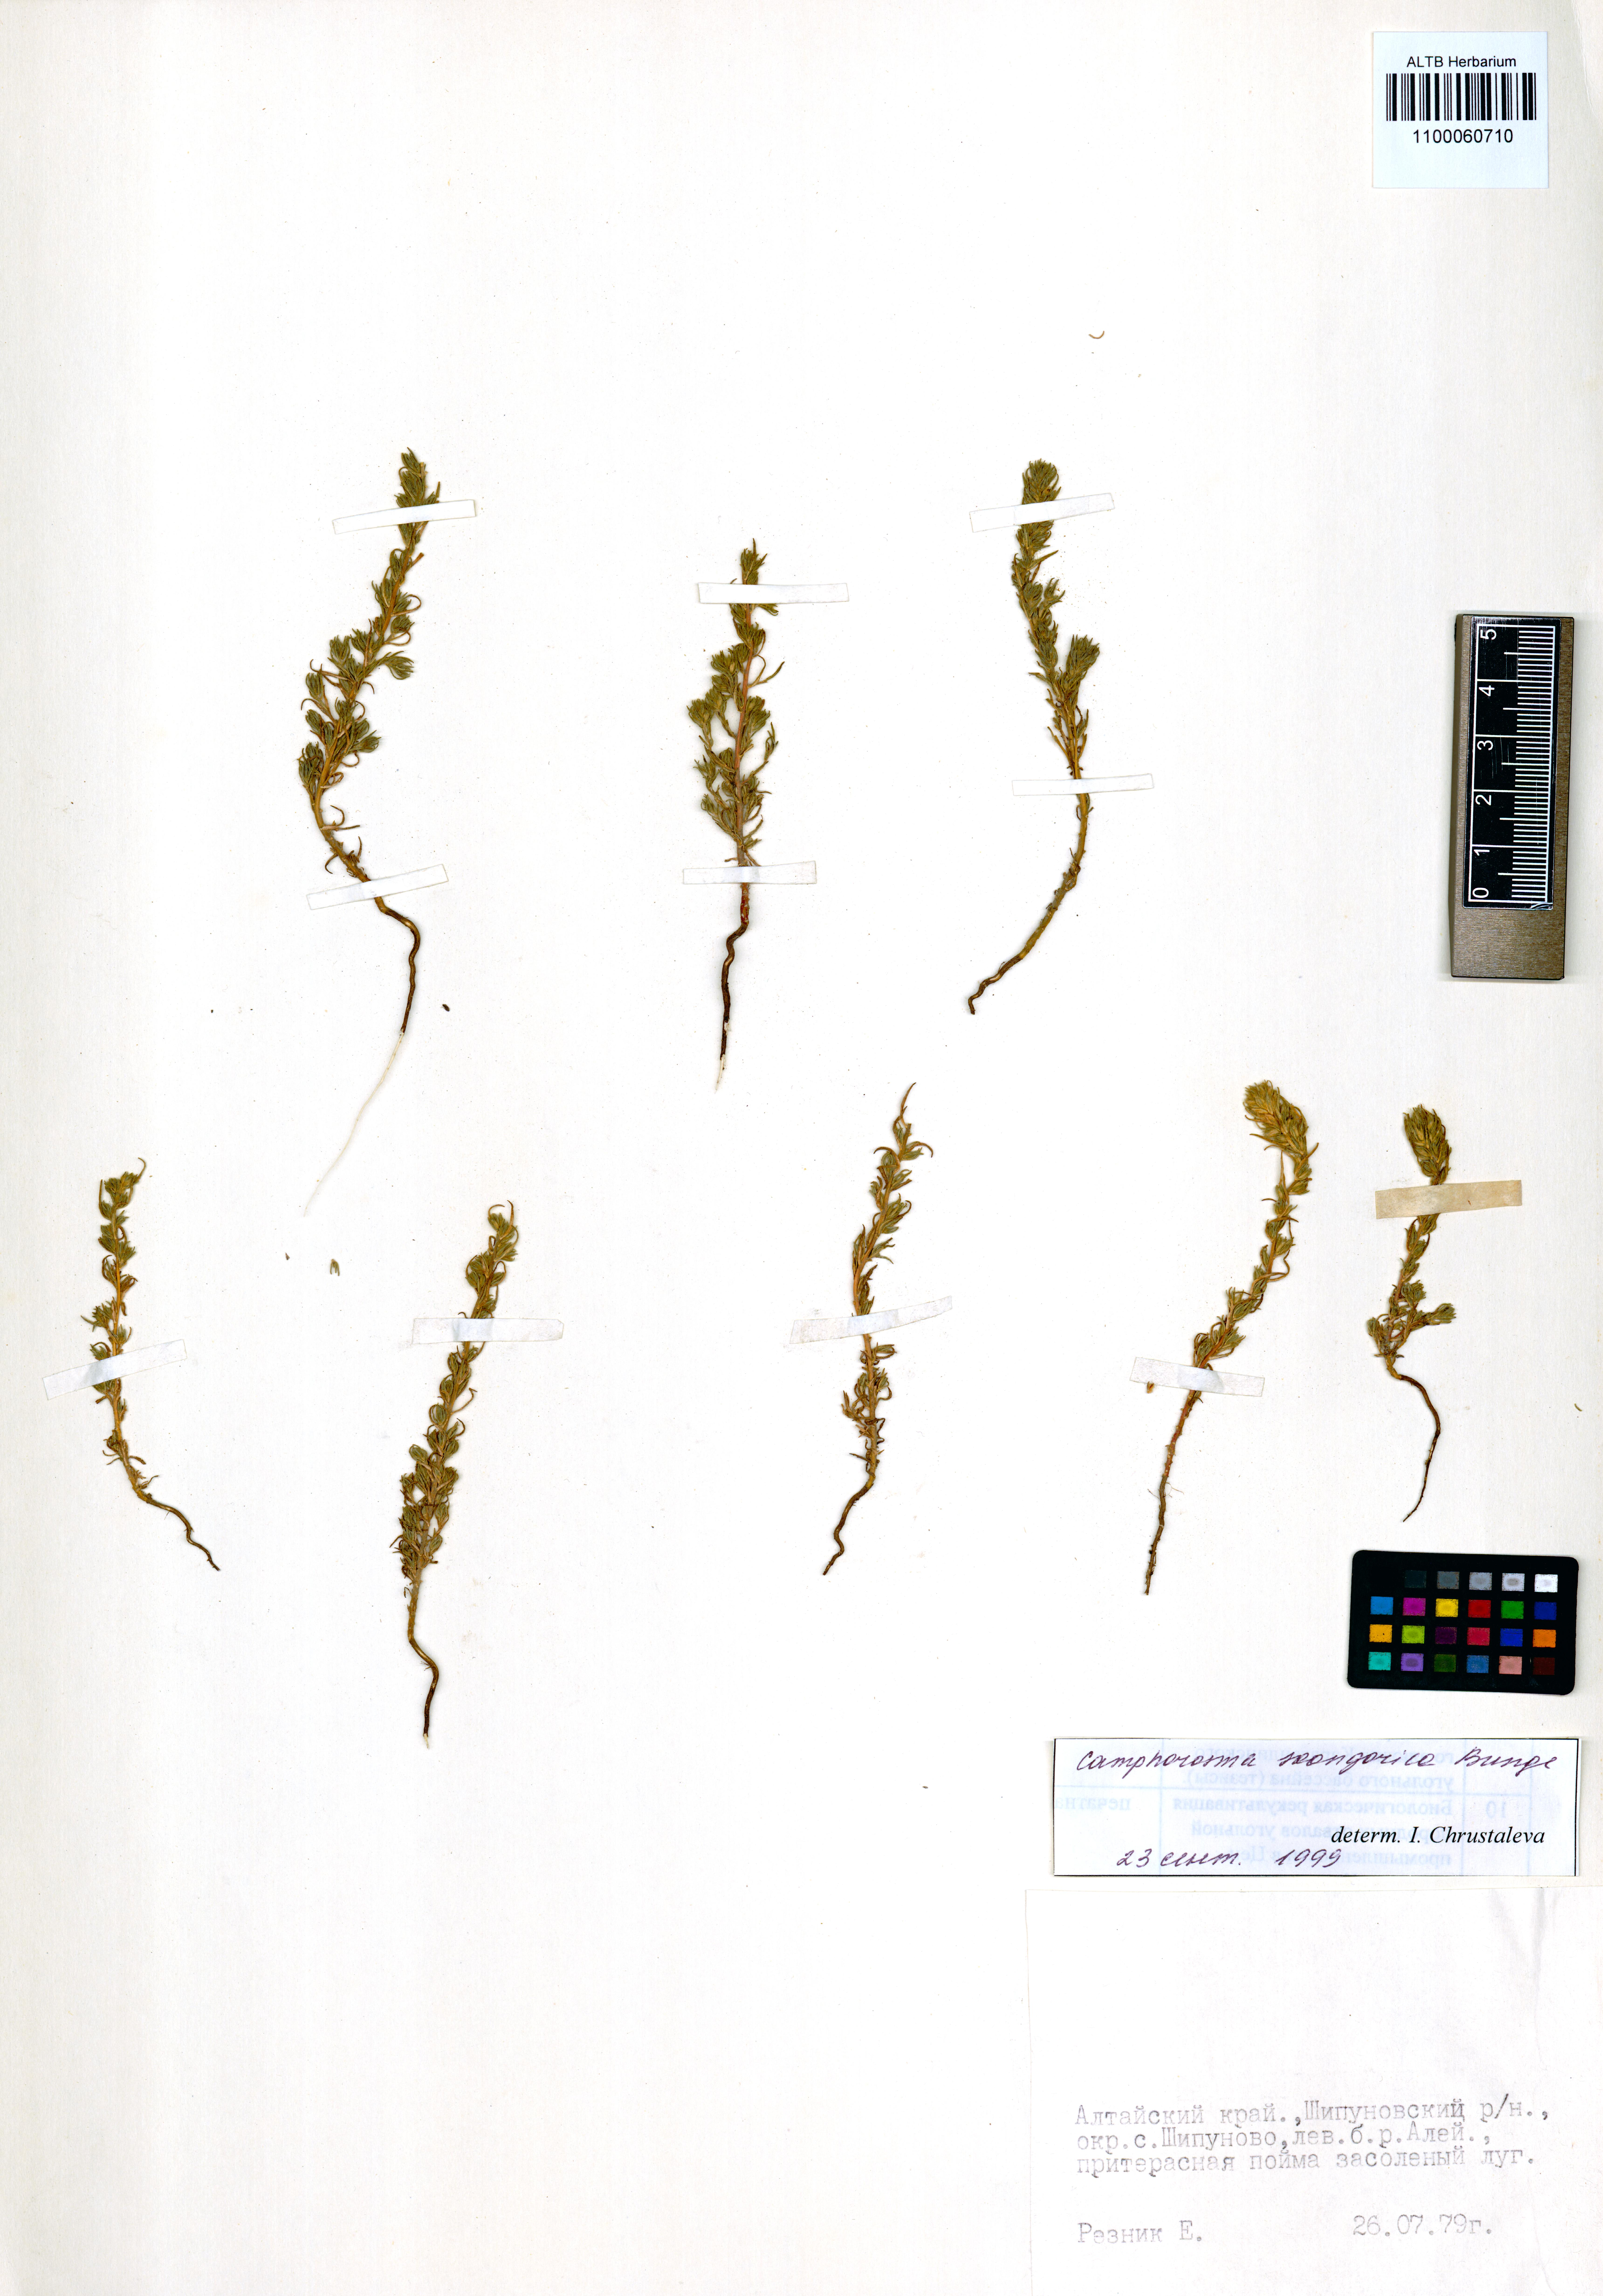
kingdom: Plantae
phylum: Tracheophyta
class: Magnoliopsida
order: Caryophyllales
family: Amaranthaceae
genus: Camphorosma
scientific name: Camphorosma songorica
